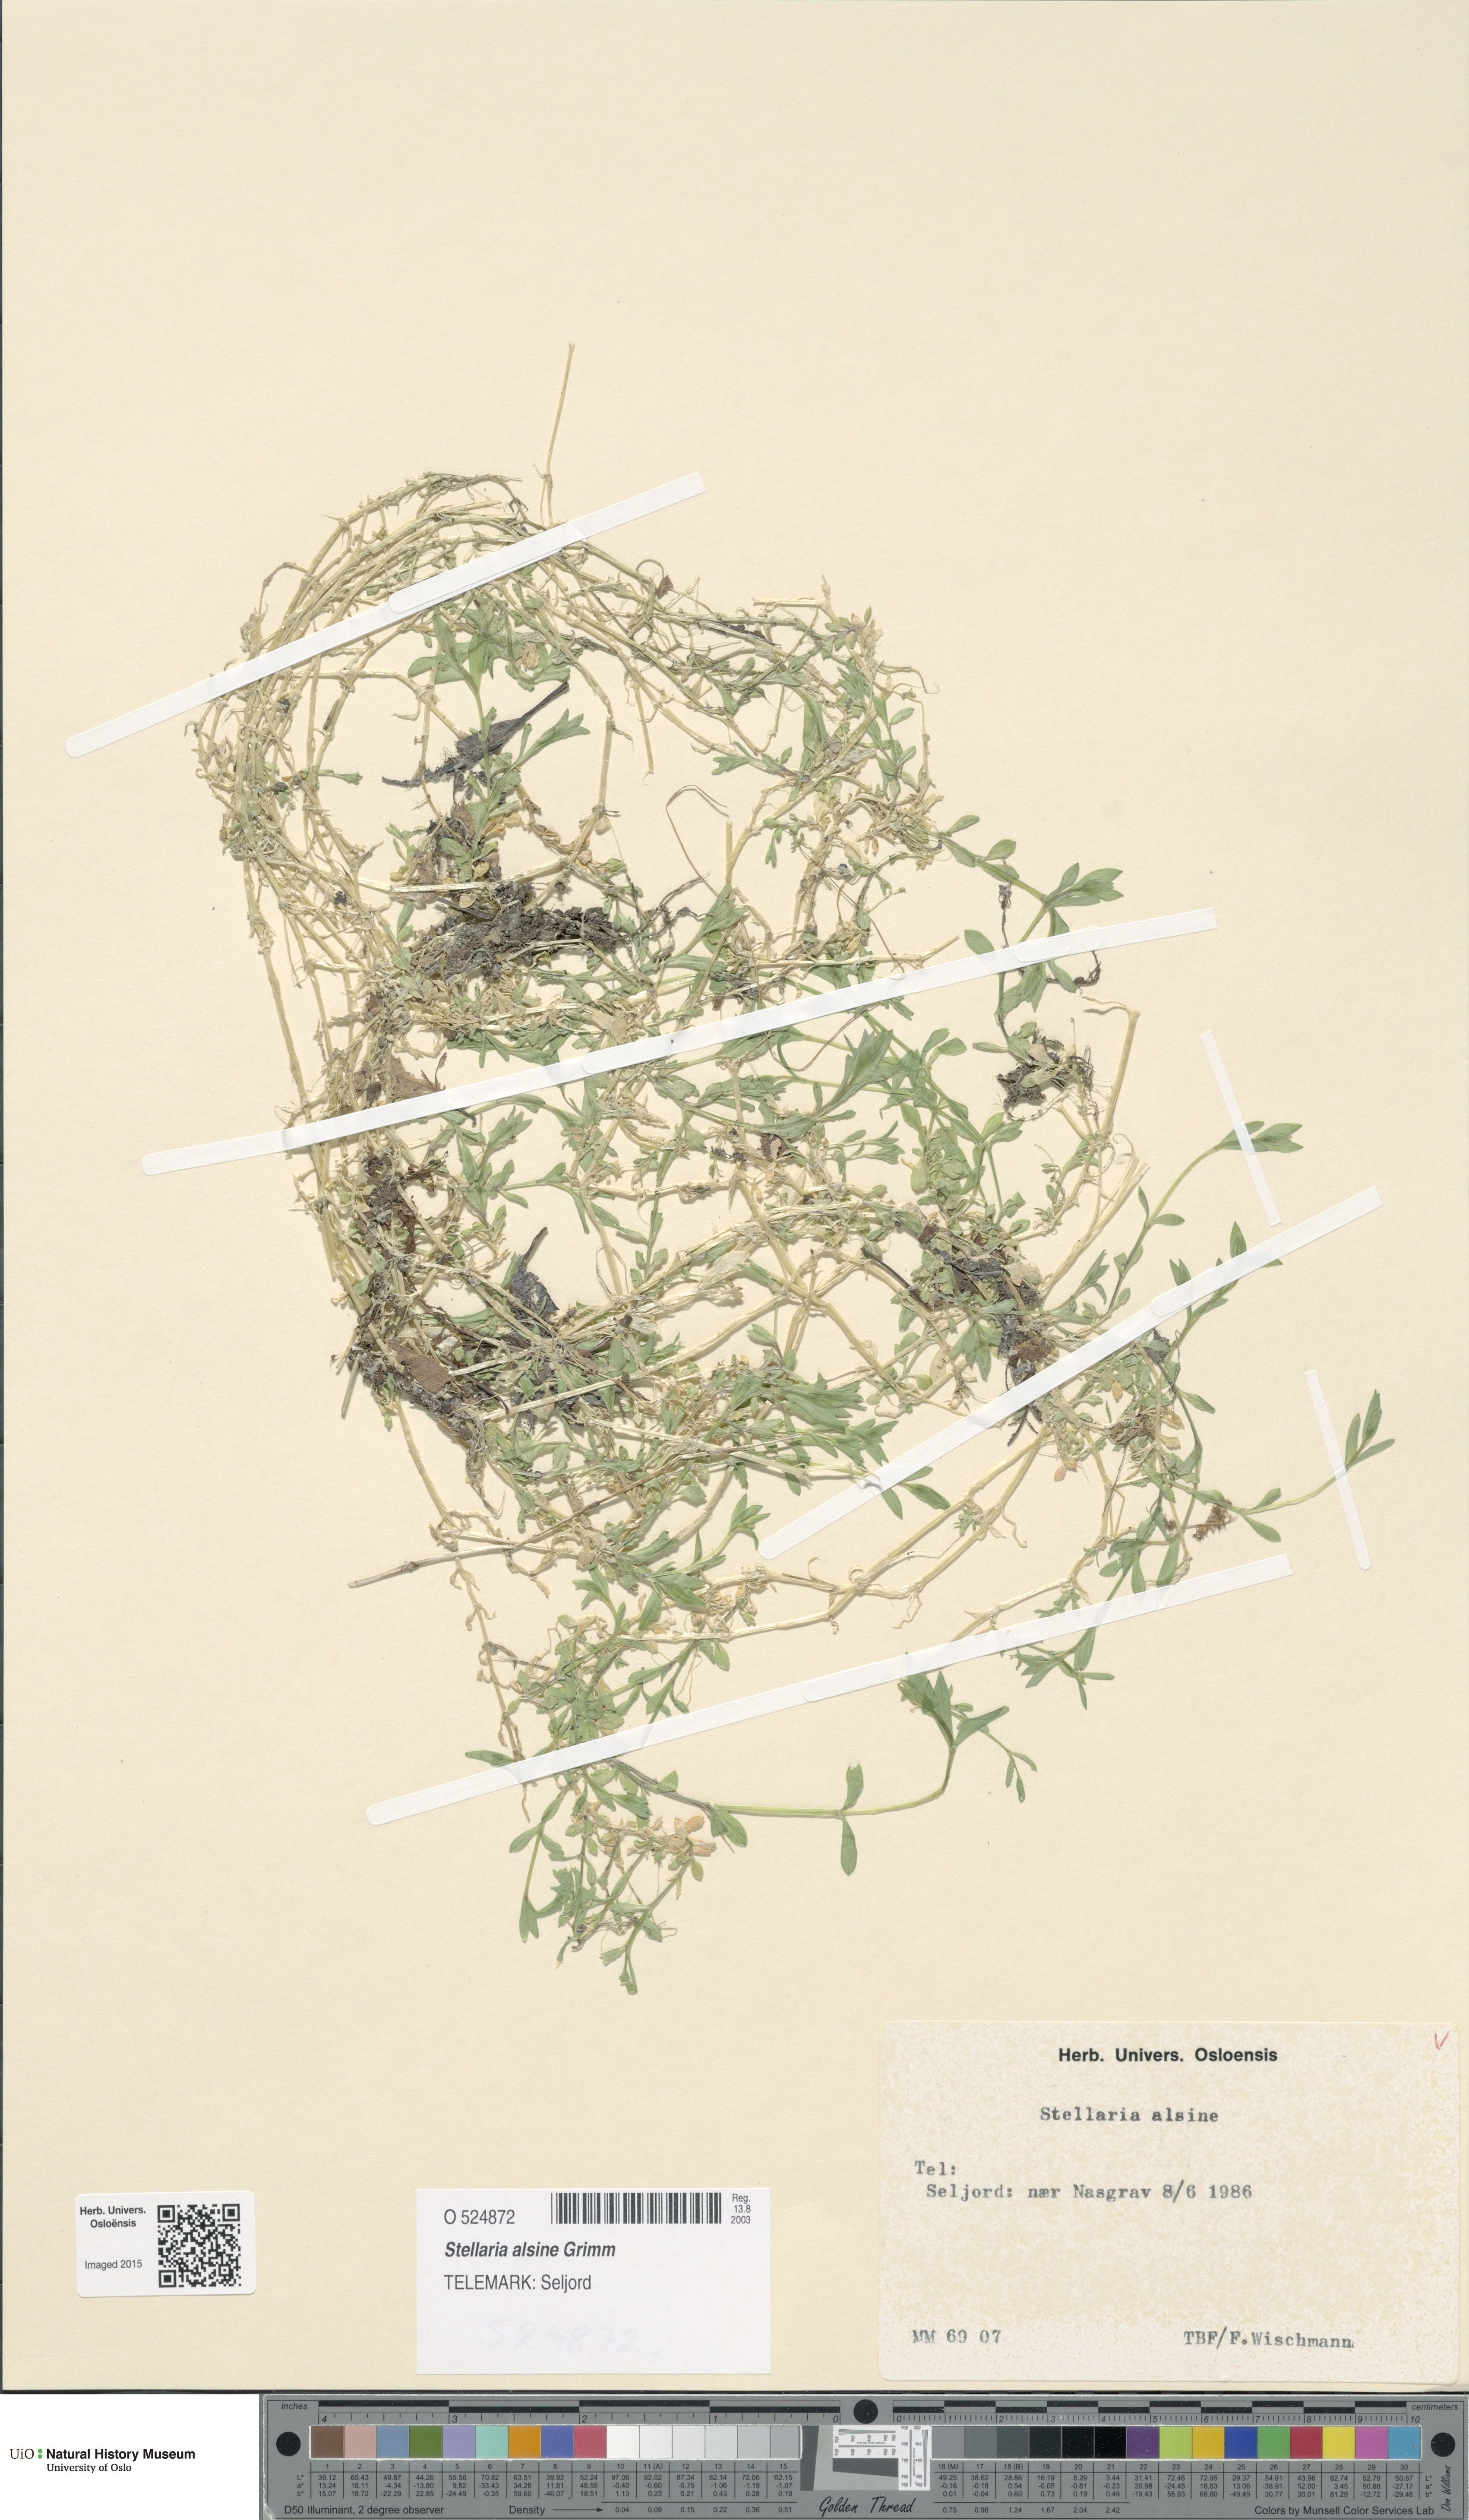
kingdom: Plantae
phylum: Tracheophyta
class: Magnoliopsida
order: Caryophyllales
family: Caryophyllaceae
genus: Stellaria
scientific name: Stellaria alsine
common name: Bog stitchwort
